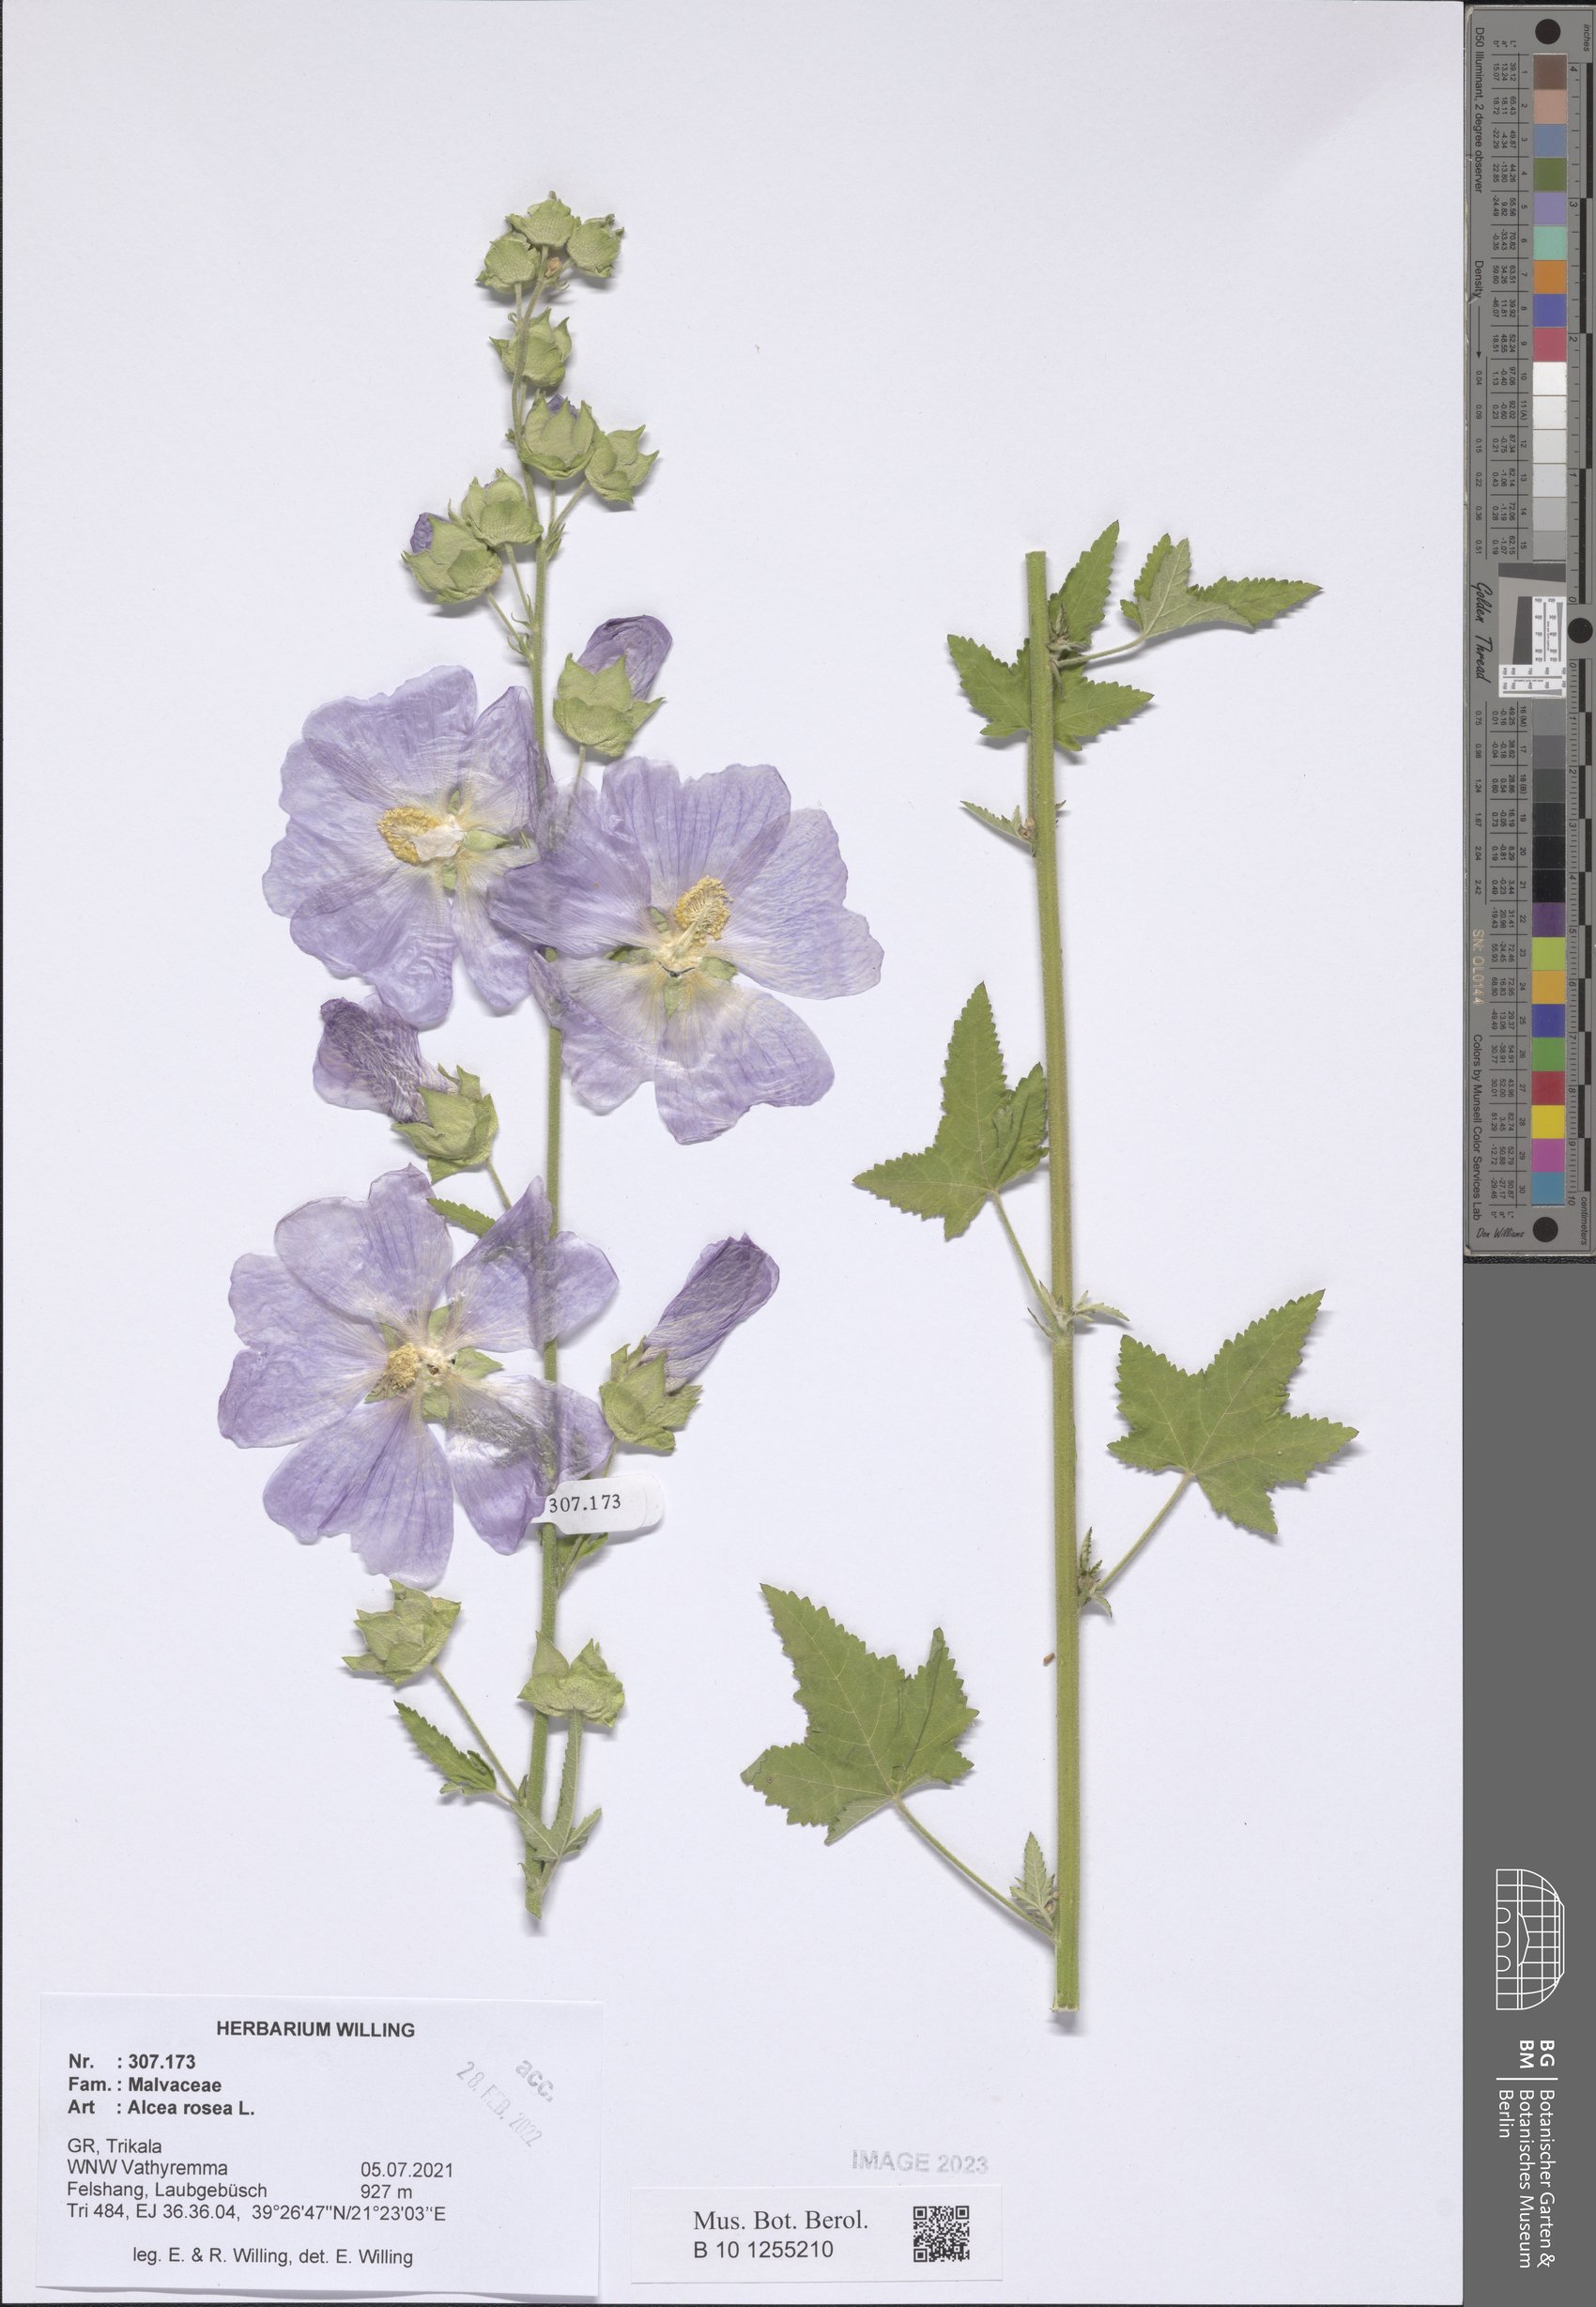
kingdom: Plantae
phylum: Tracheophyta
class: Magnoliopsida
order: Malvales
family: Malvaceae
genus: Alcea
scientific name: Alcea rosea
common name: Hollyhock
